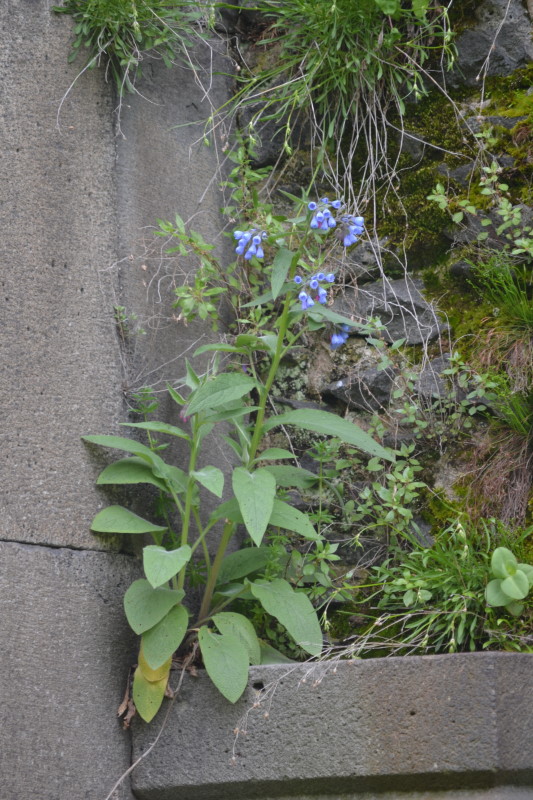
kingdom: Plantae
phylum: Tracheophyta
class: Magnoliopsida
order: Boraginales
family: Boraginaceae
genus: Symphytum
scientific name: Symphytum asperum
